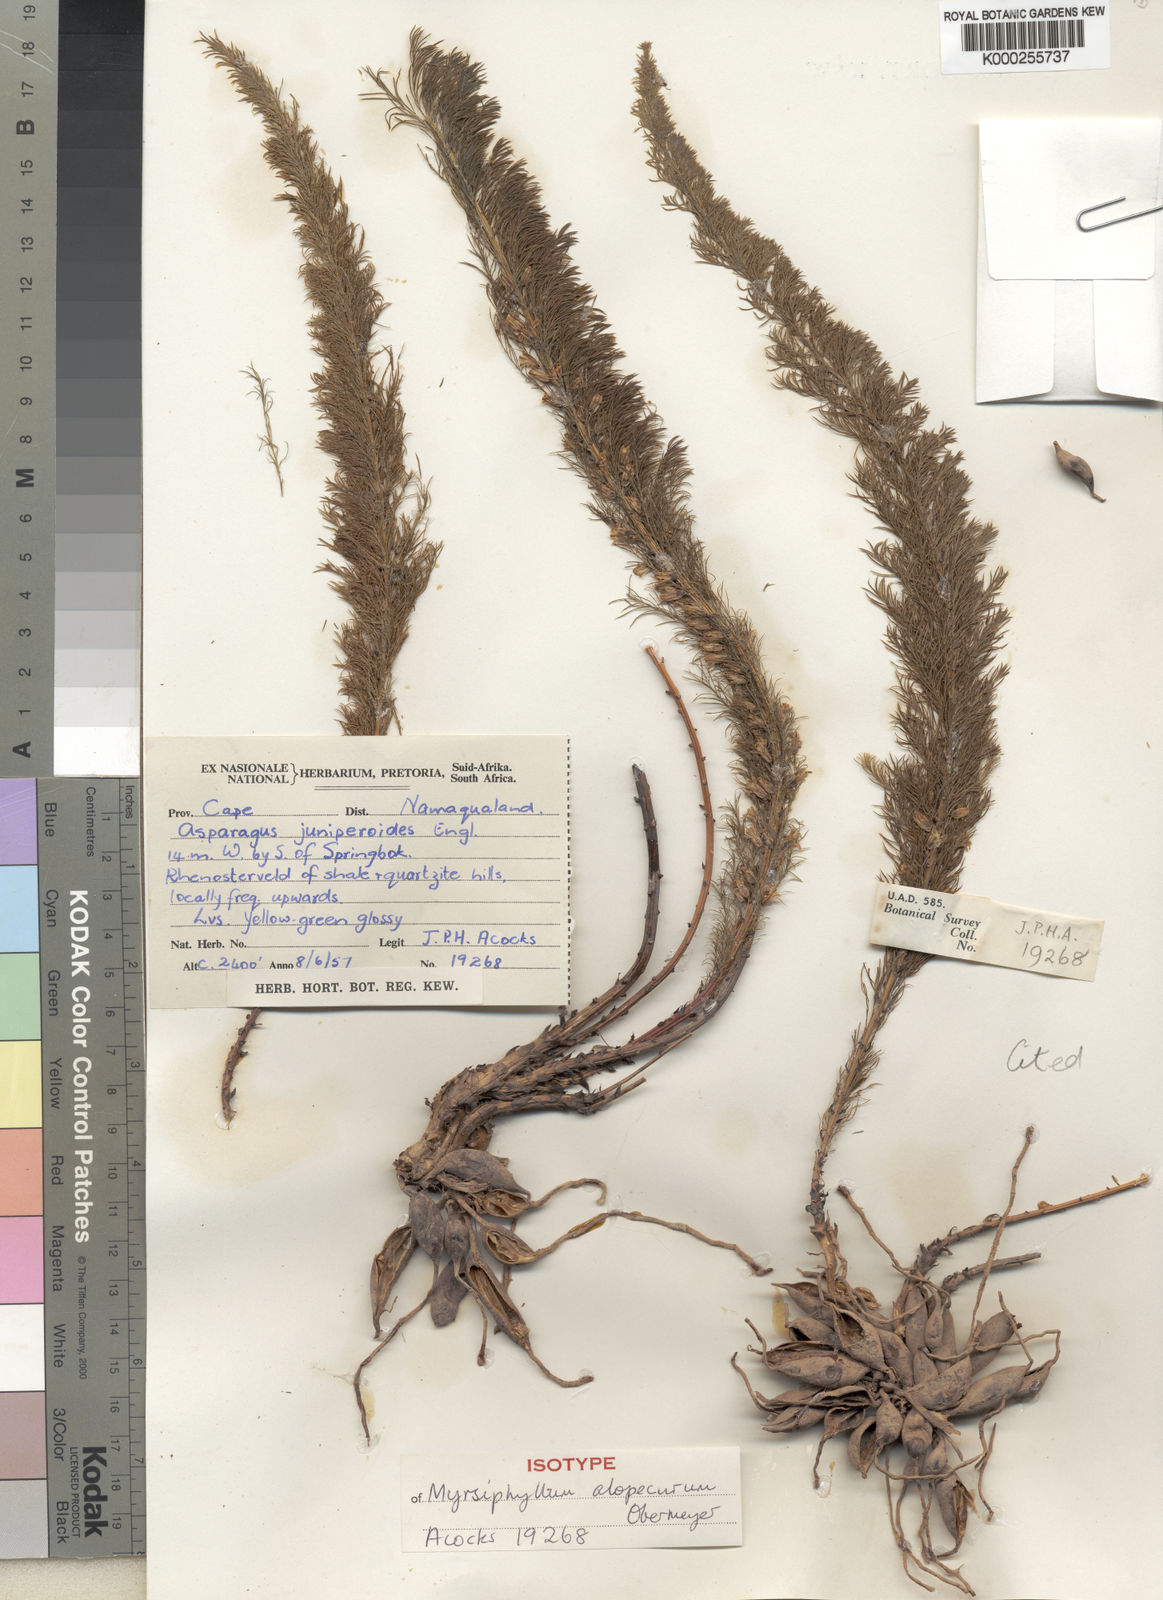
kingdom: Plantae
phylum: Tracheophyta
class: Liliopsida
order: Asparagales
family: Asparagaceae
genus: Asparagus
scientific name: Asparagus juniperoides
